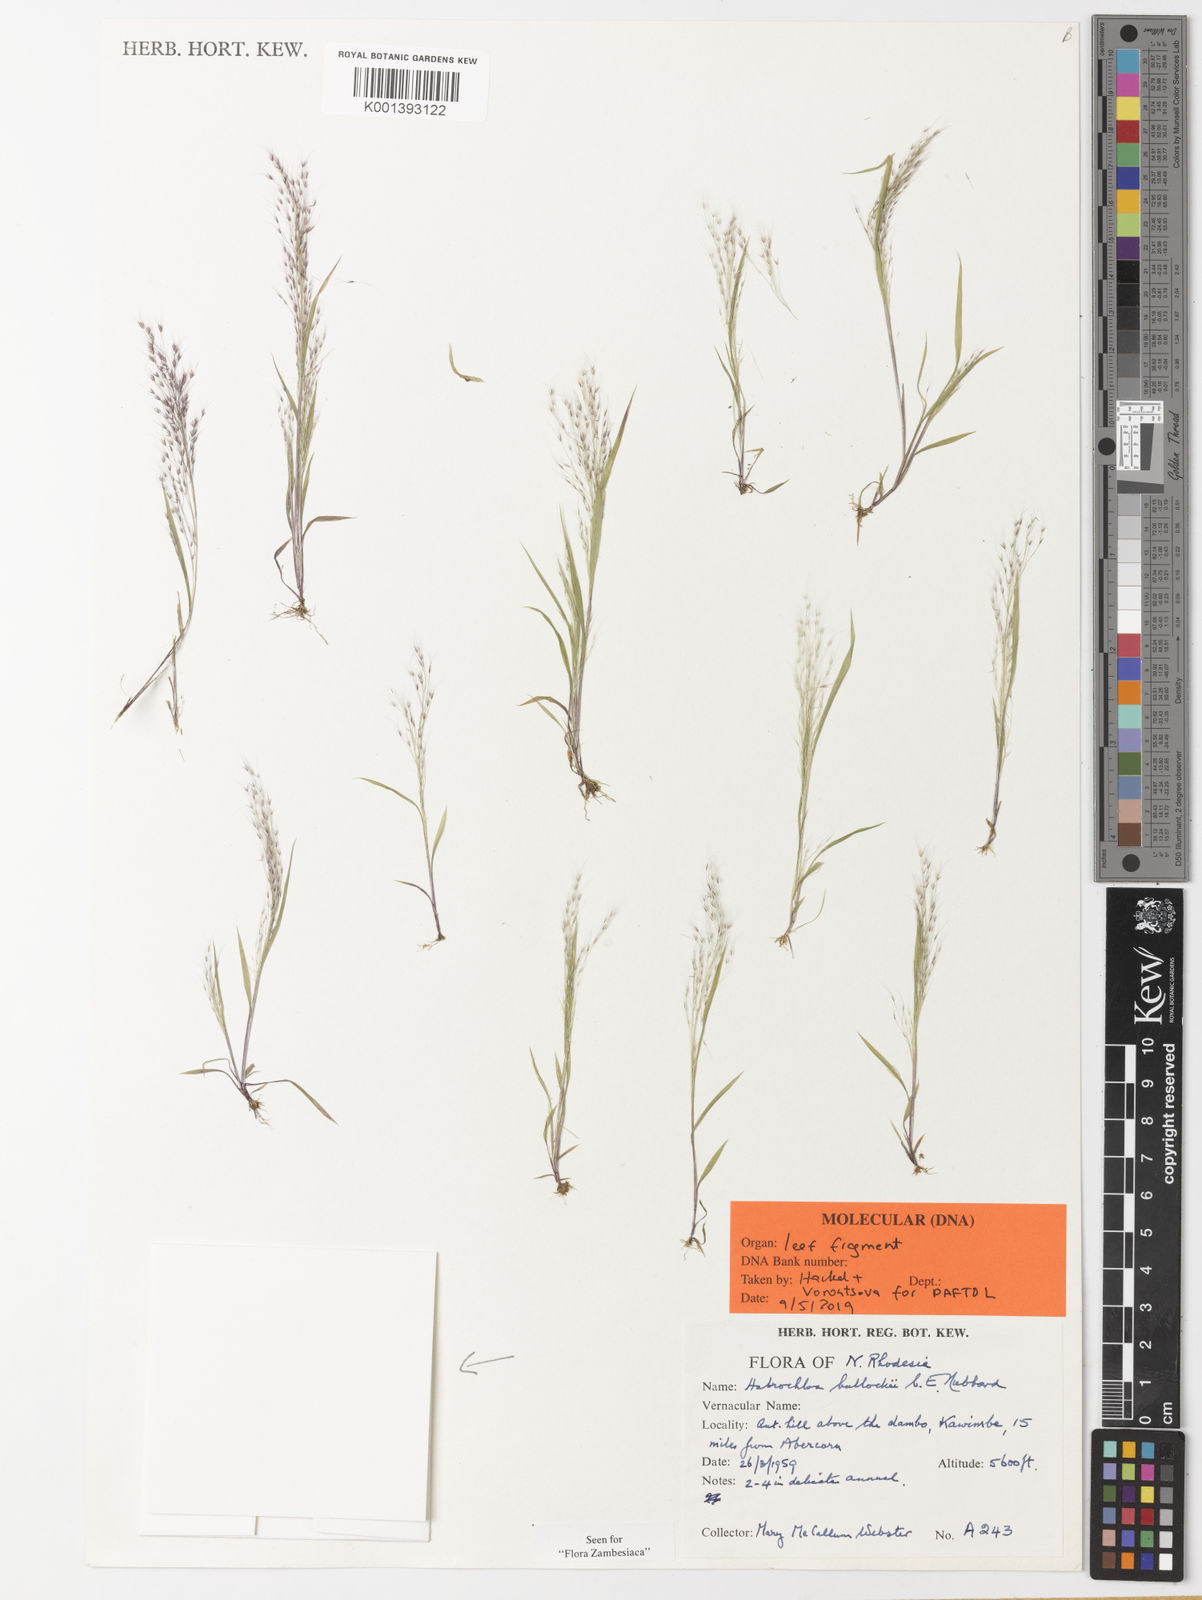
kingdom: Plantae
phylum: Tracheophyta
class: Liliopsida
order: Poales
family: Poaceae
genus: Habrochloa
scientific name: Habrochloa bullockii
